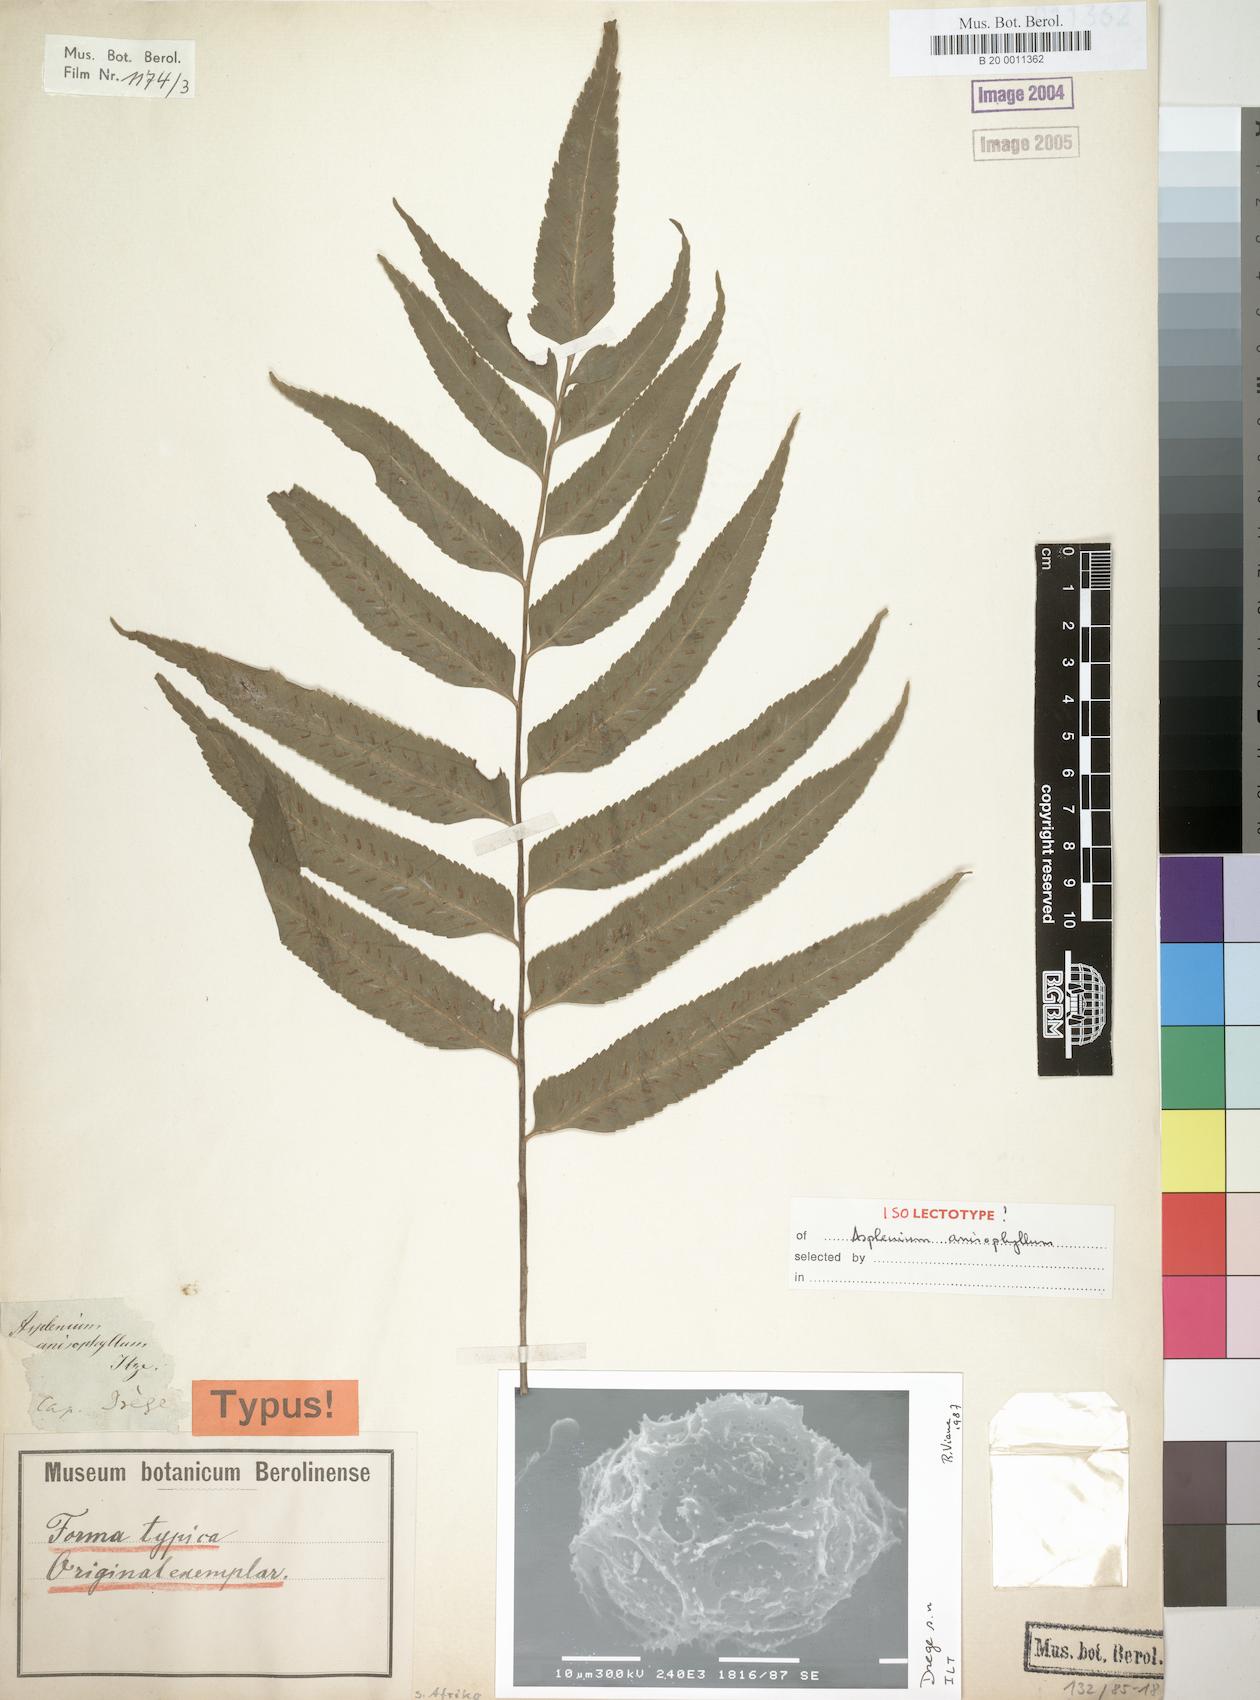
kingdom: Plantae
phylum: Tracheophyta
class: Polypodiopsida
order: Polypodiales
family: Aspleniaceae
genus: Asplenium
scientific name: Asplenium anisophyllum
